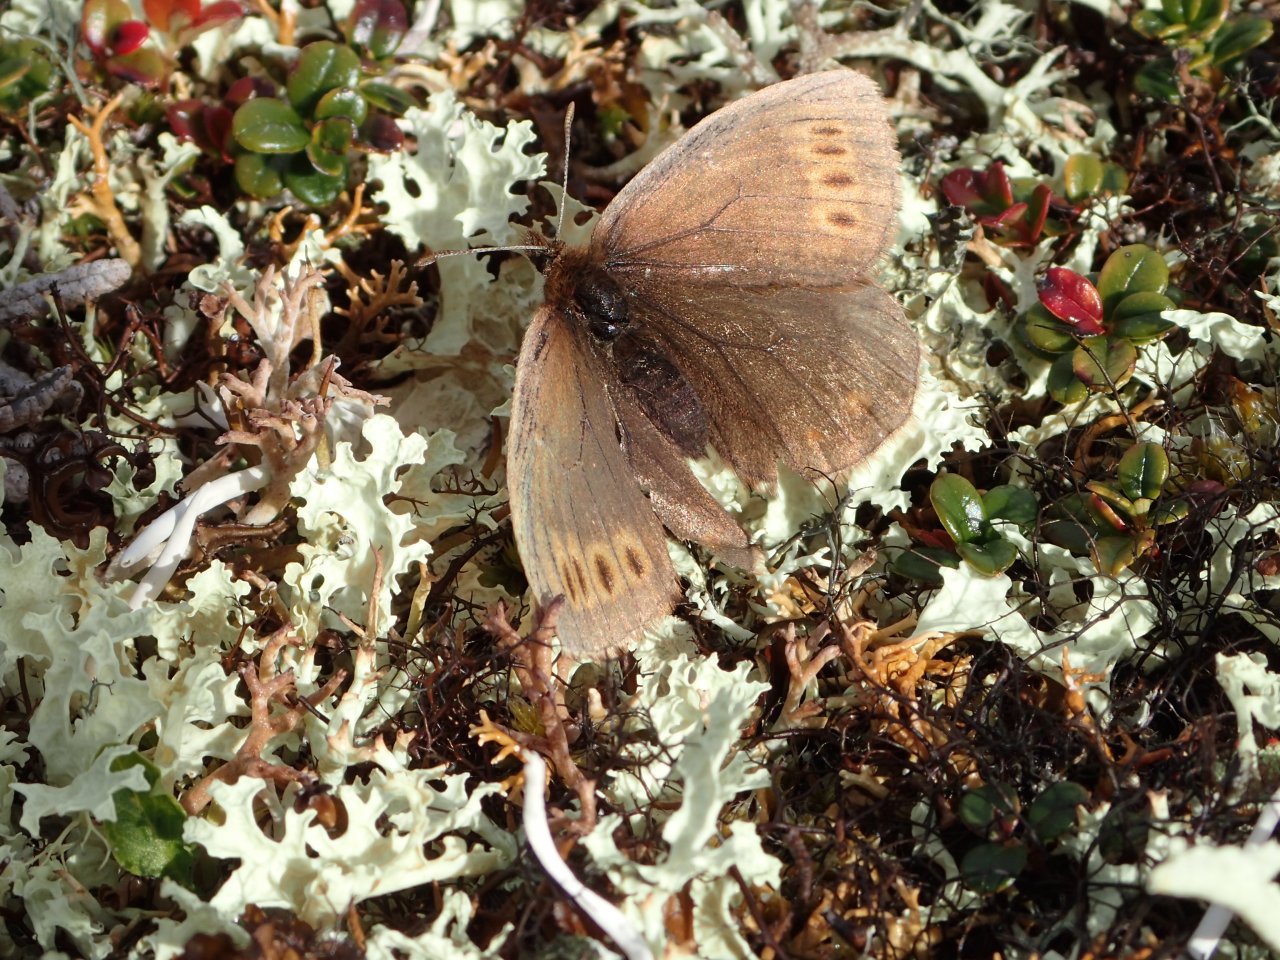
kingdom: Animalia
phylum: Arthropoda
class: Insecta
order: Lepidoptera
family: Nymphalidae
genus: Erebia
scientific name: Erebia youngi
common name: Four-dotted Alpine
